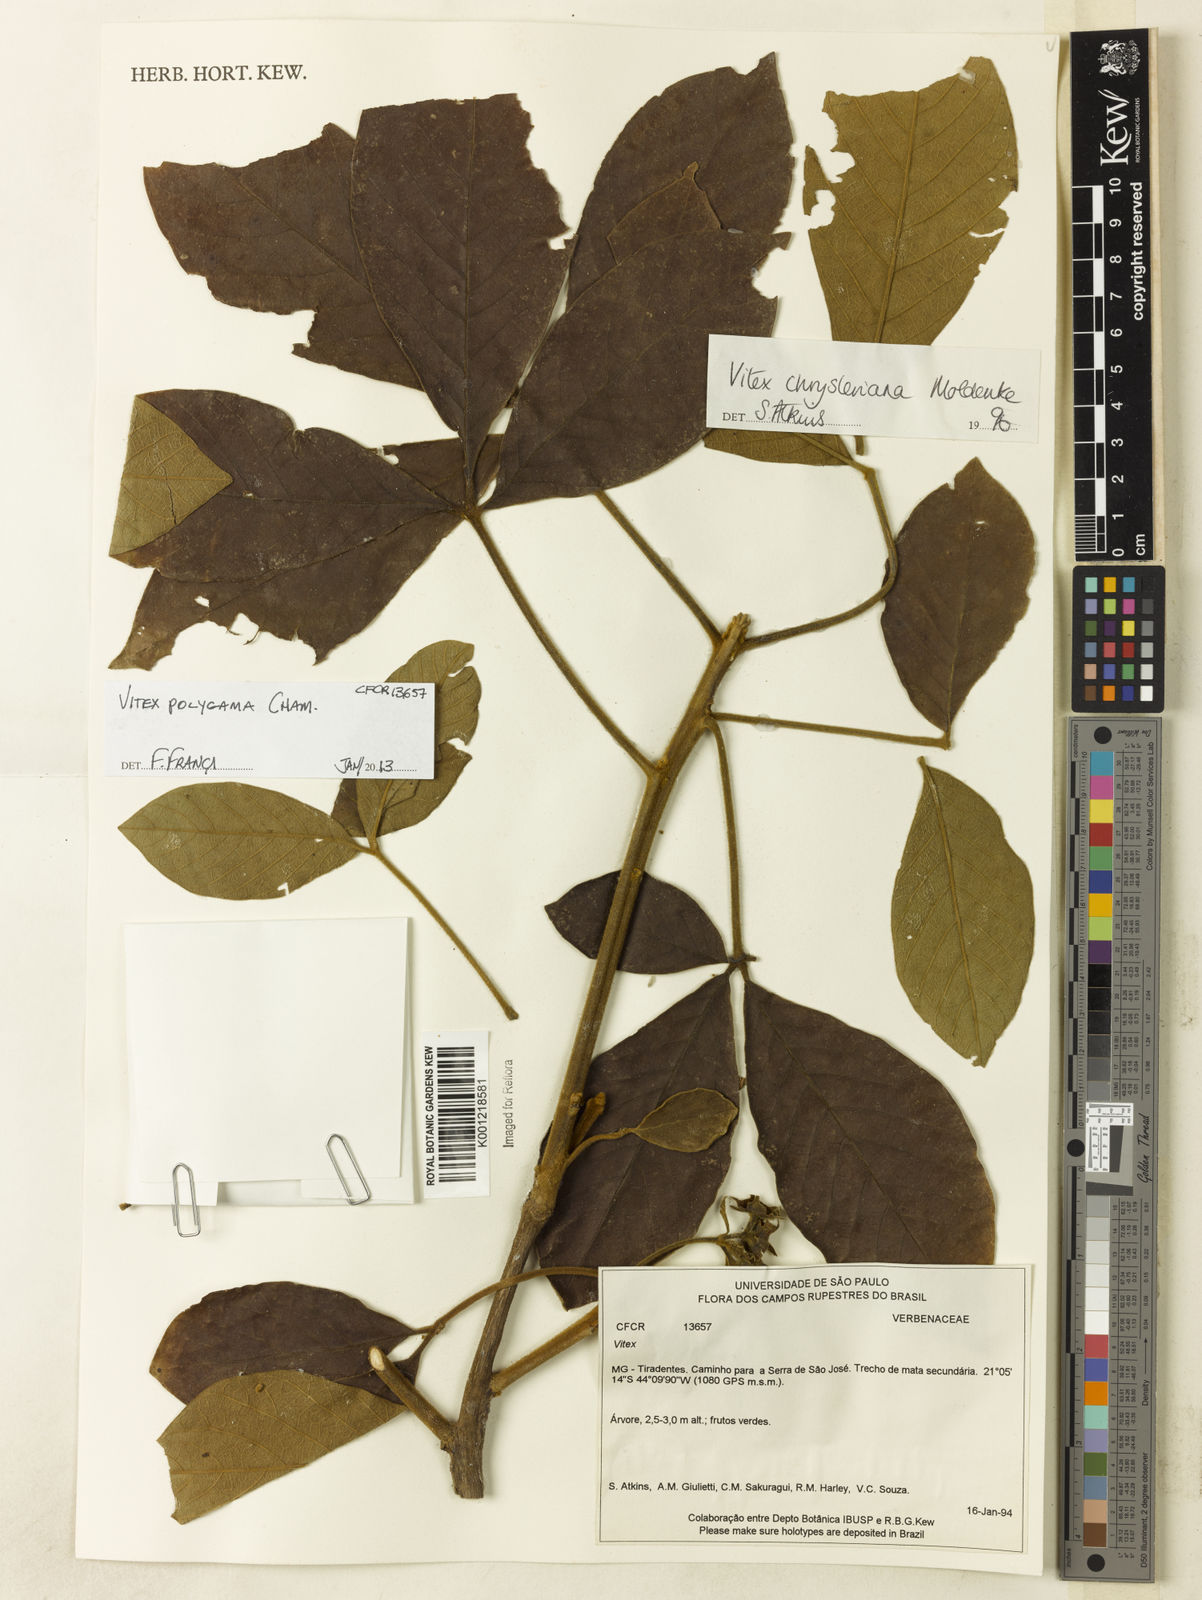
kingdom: Plantae
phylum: Tracheophyta
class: Magnoliopsida
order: Lamiales
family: Lamiaceae
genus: Vitex
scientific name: Vitex polygama
